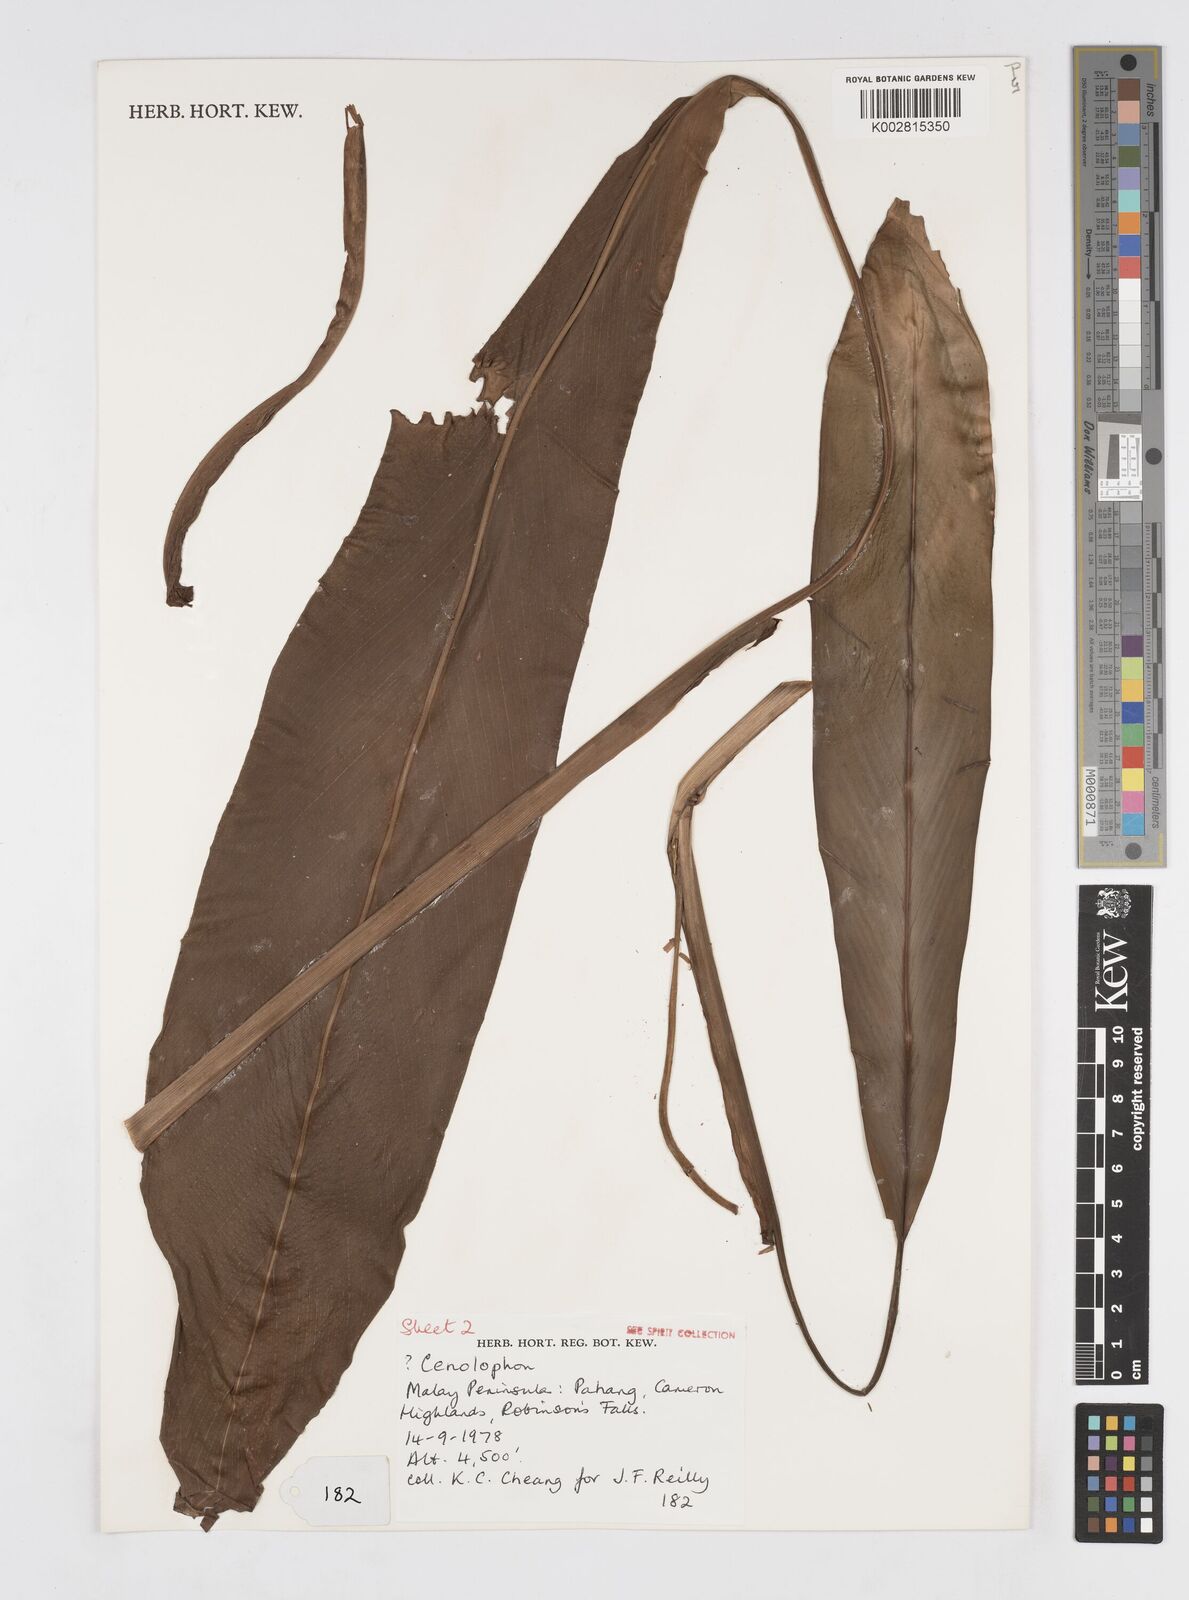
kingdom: Plantae
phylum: Tracheophyta
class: Liliopsida
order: Zingiberales
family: Zingiberaceae
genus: Alpinia
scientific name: Alpinia
